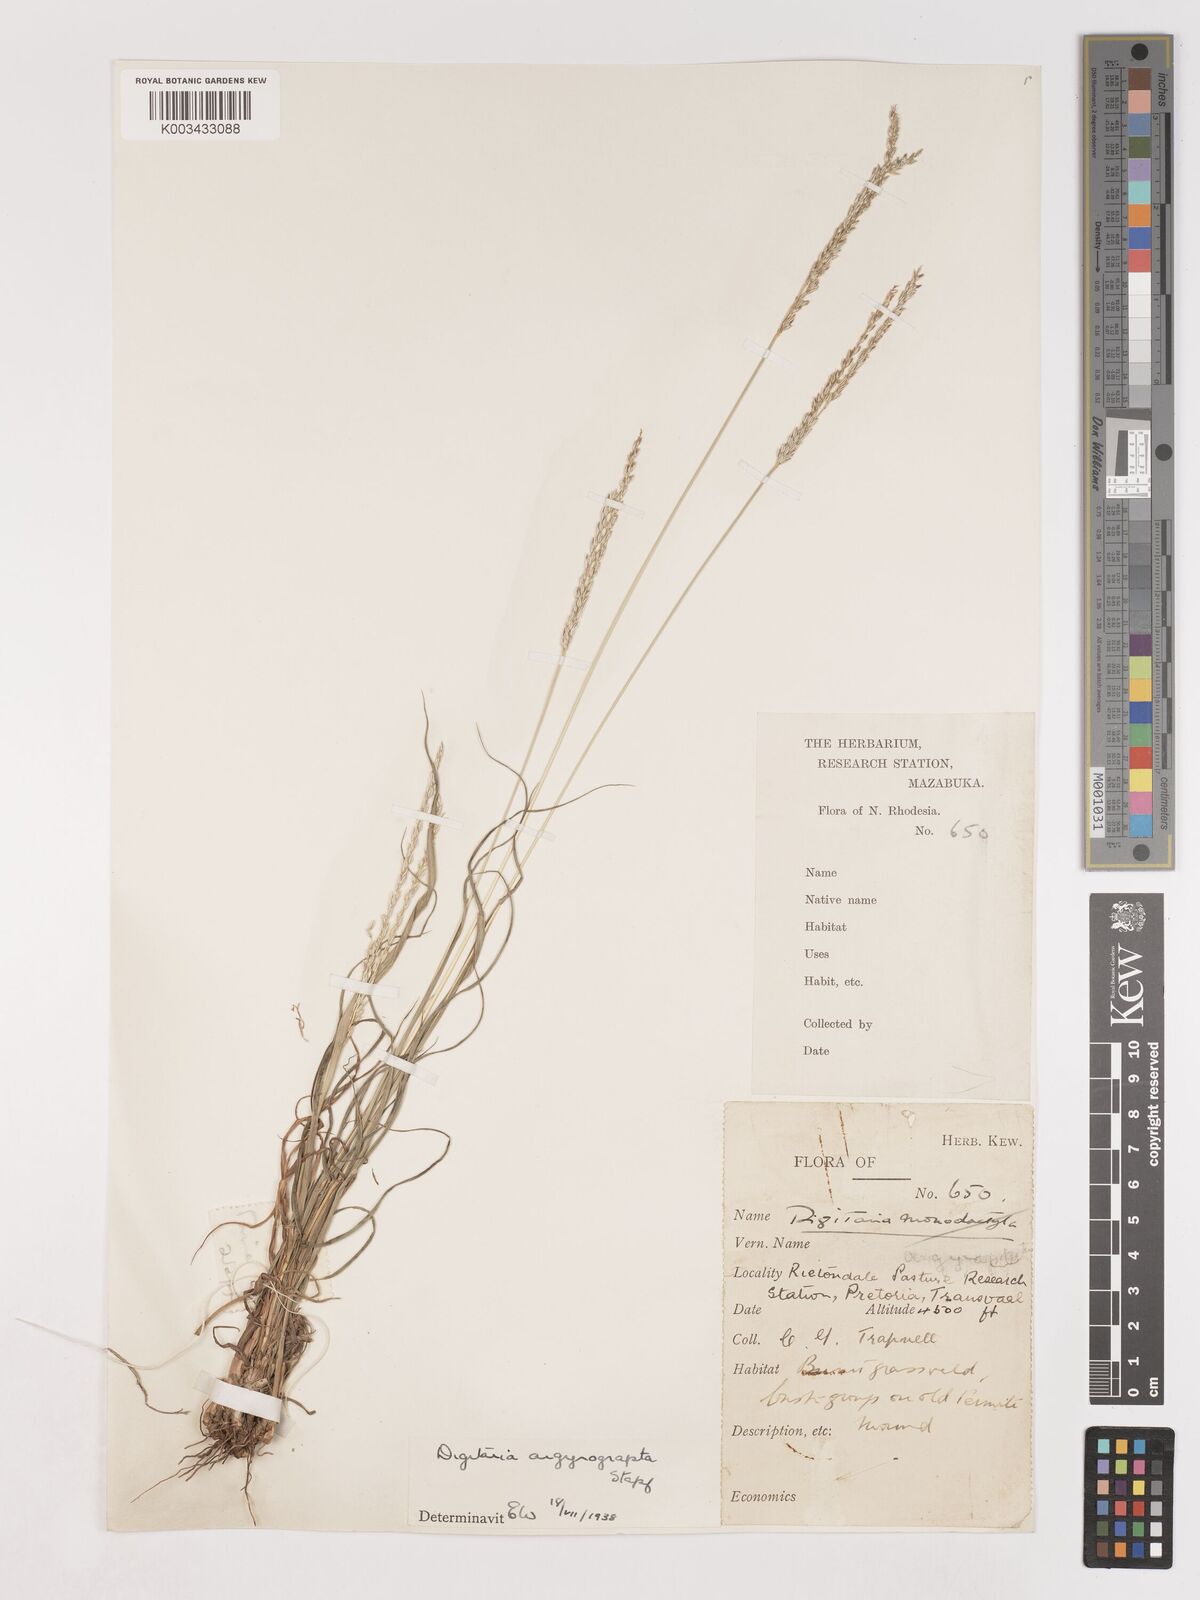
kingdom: Plantae
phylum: Tracheophyta
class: Liliopsida
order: Poales
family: Poaceae
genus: Digitaria
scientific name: Digitaria argyrograpta
